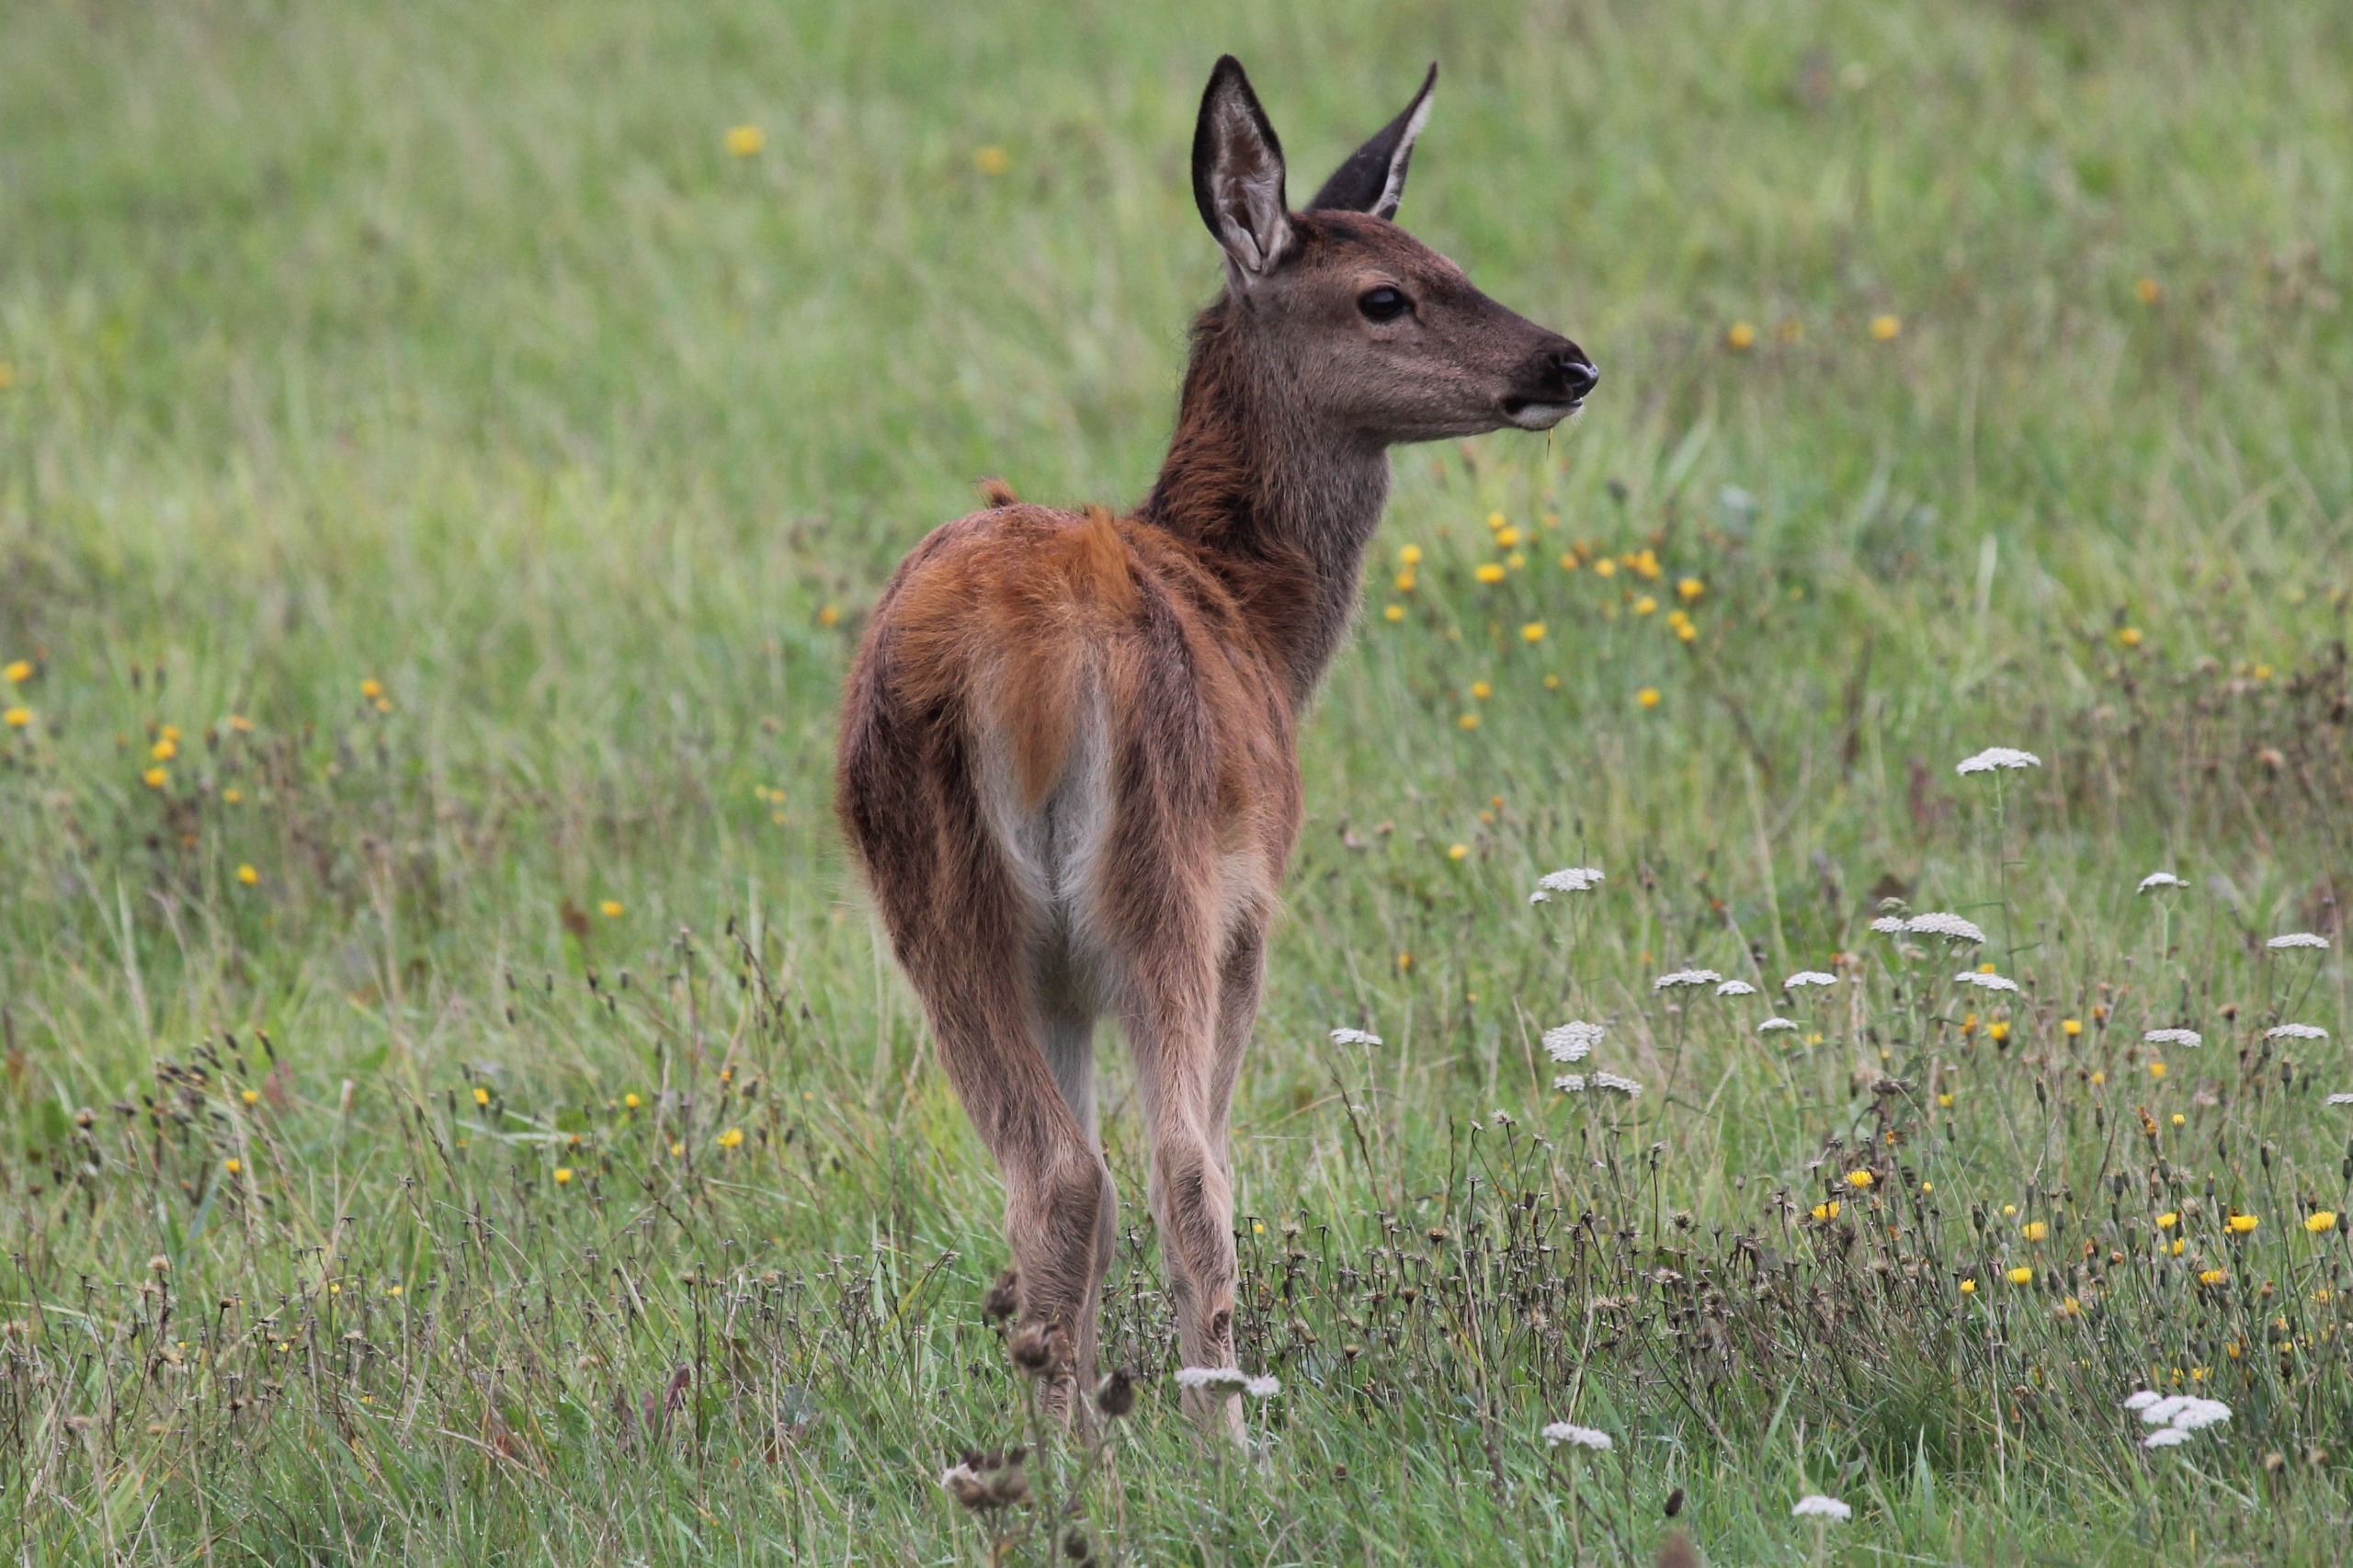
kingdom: Animalia
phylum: Chordata
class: Mammalia
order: Artiodactyla
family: Cervidae
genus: Cervus
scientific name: Cervus elaphus
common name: Krondyr
